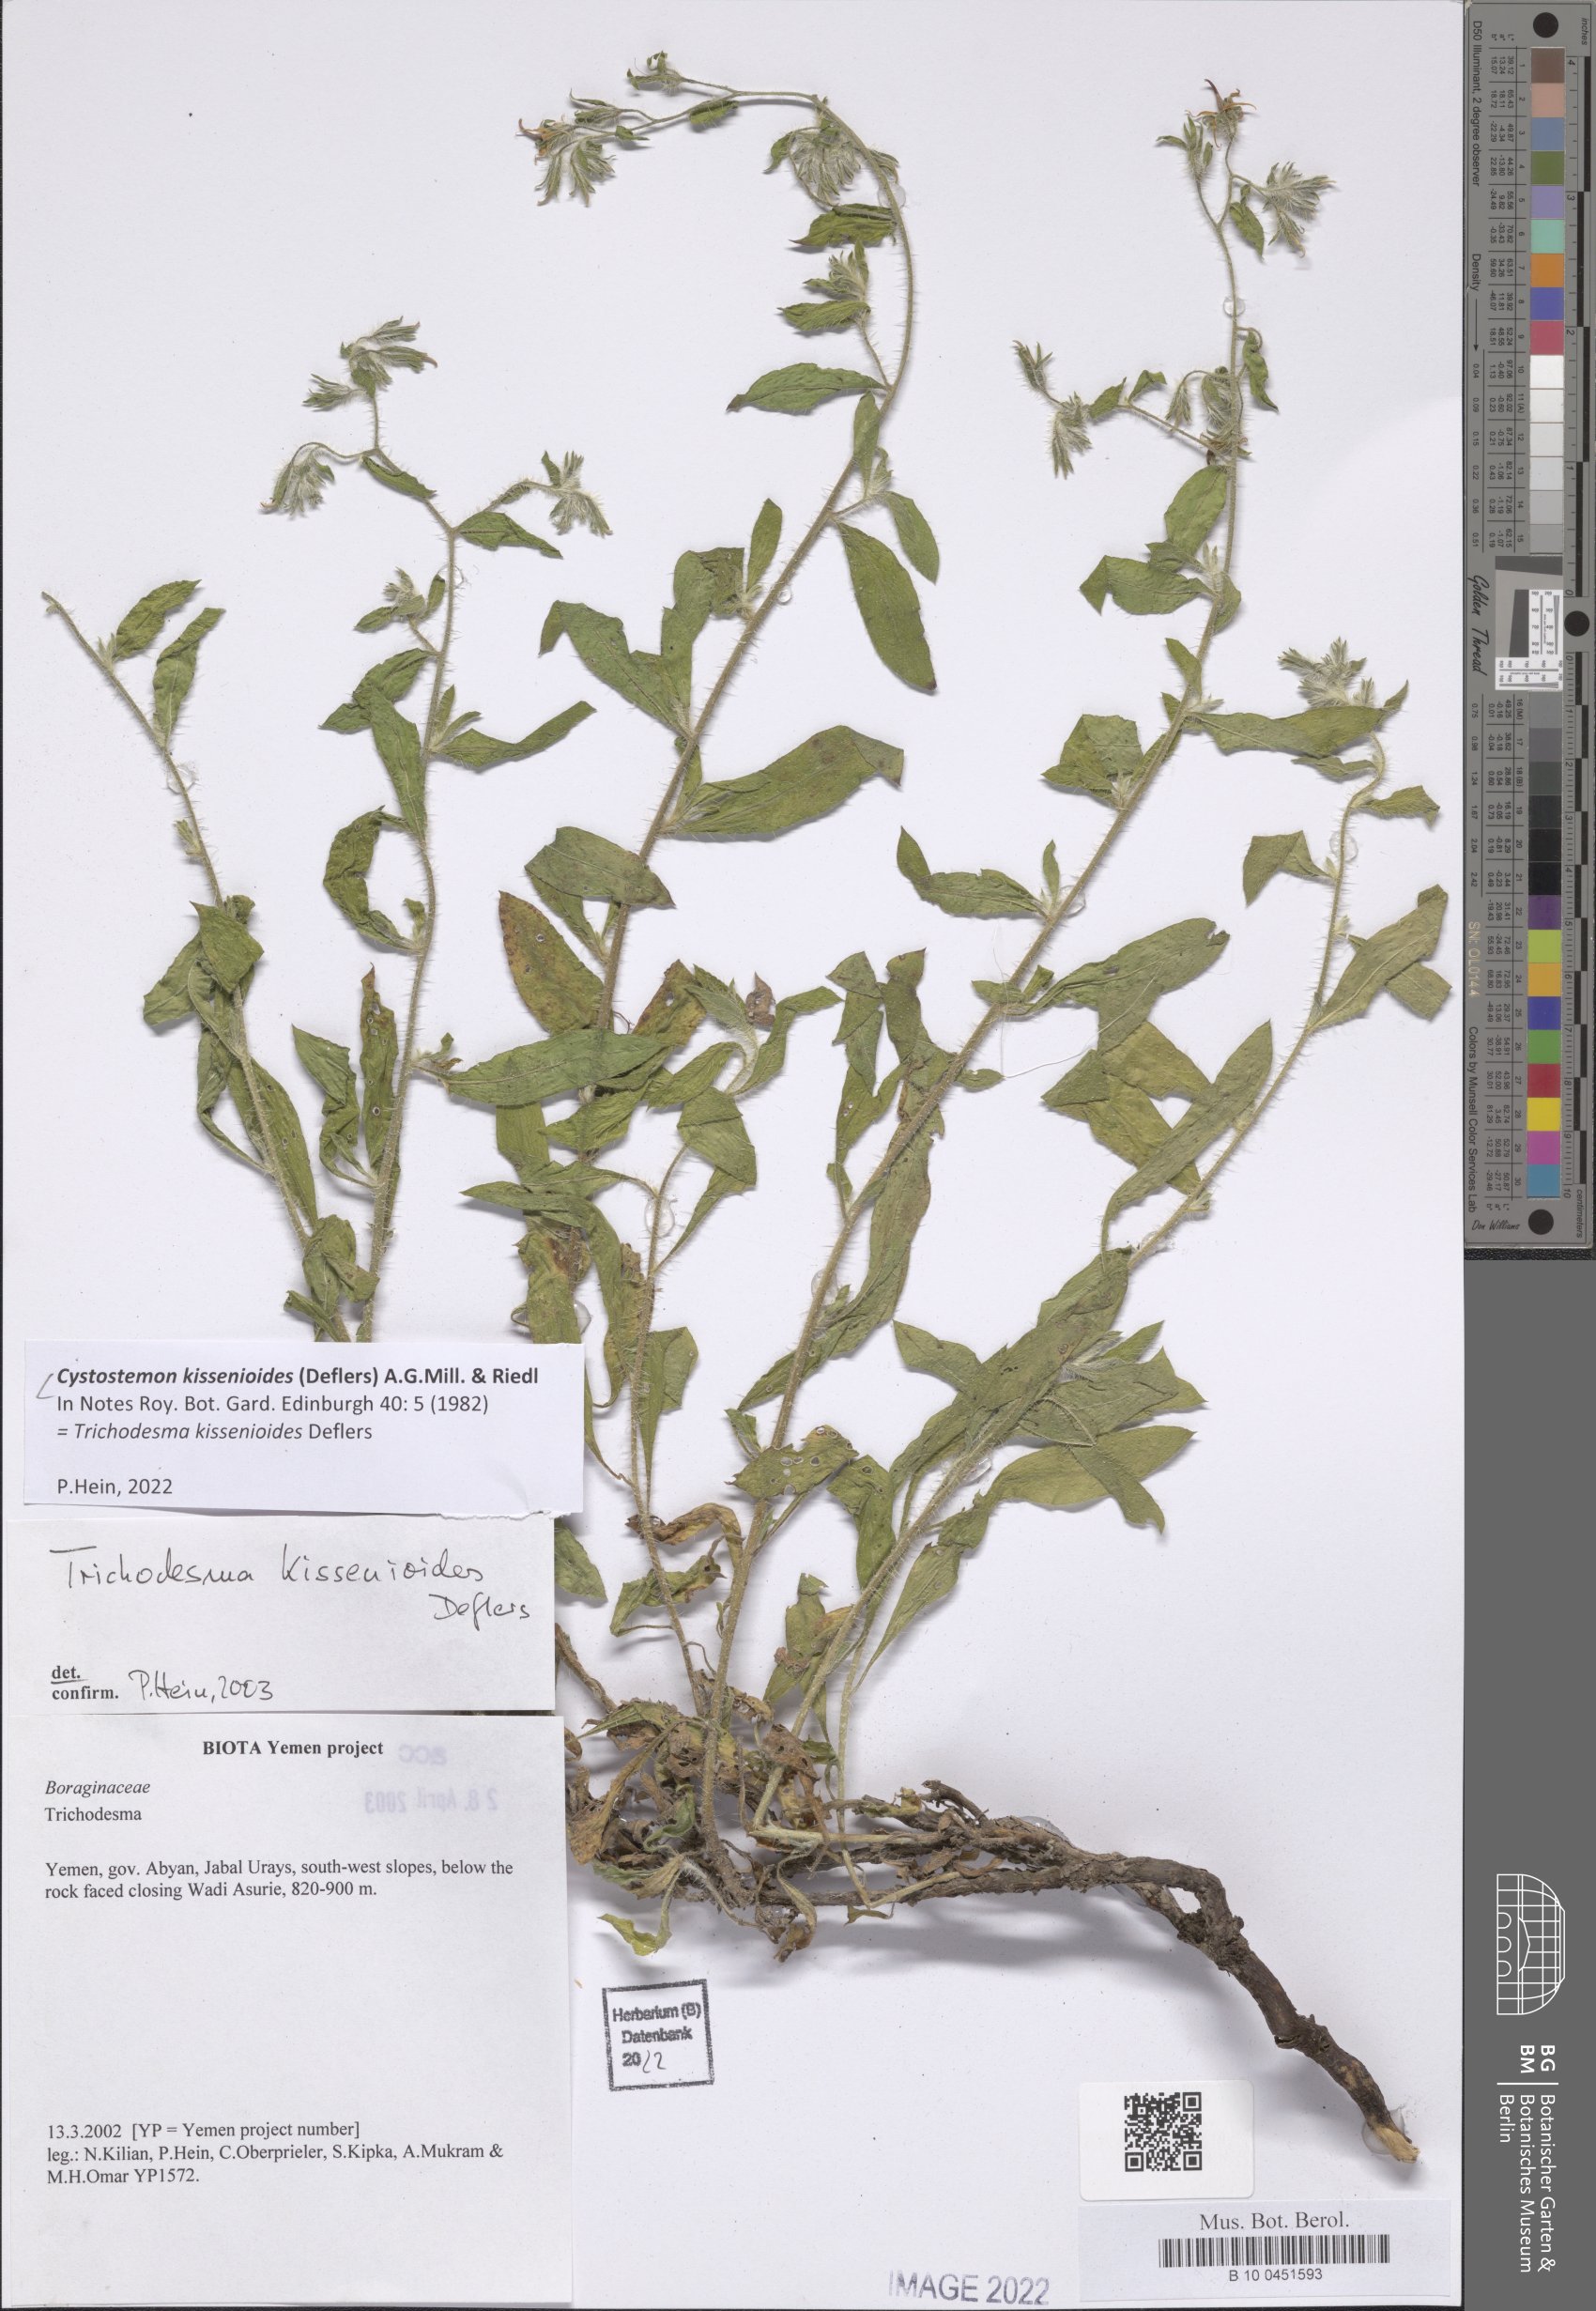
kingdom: Plantae
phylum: Tracheophyta
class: Magnoliopsida
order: Boraginales
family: Boraginaceae
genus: Cystostemon
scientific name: Cystostemon kissenioides
